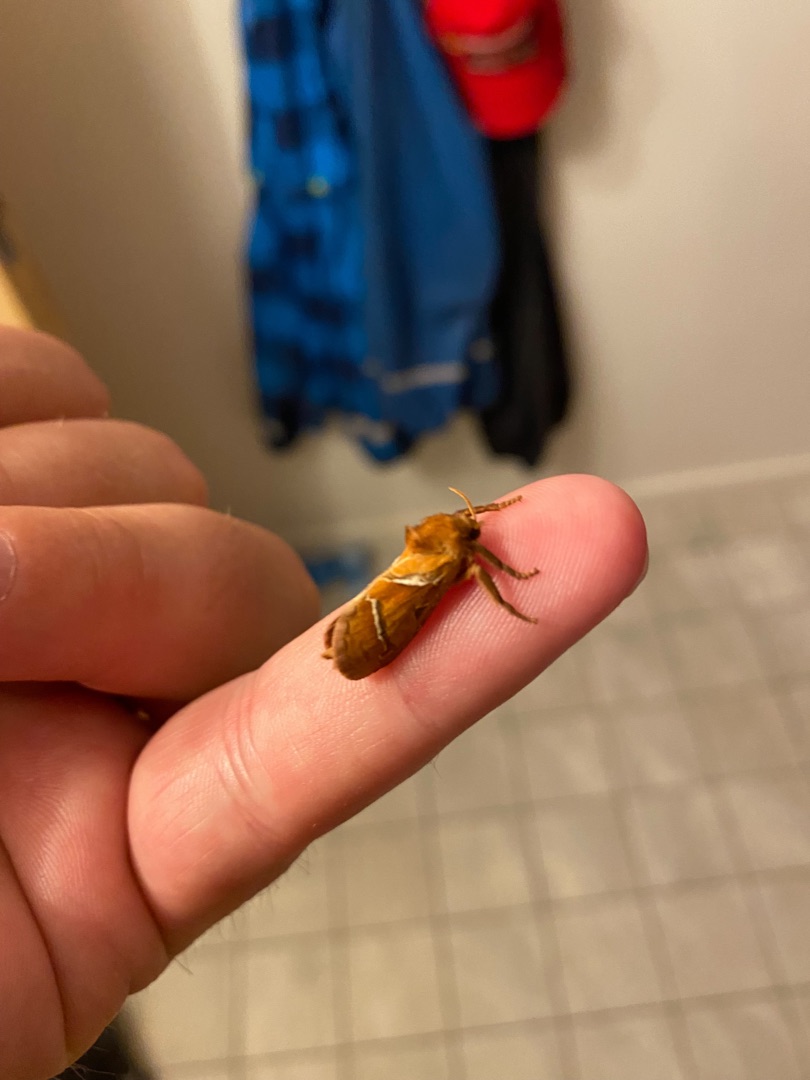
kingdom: Animalia
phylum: Arthropoda
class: Insecta
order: Lepidoptera
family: Hepialidae
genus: Triodia
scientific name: Triodia sylvina
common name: Skræpperodæder
